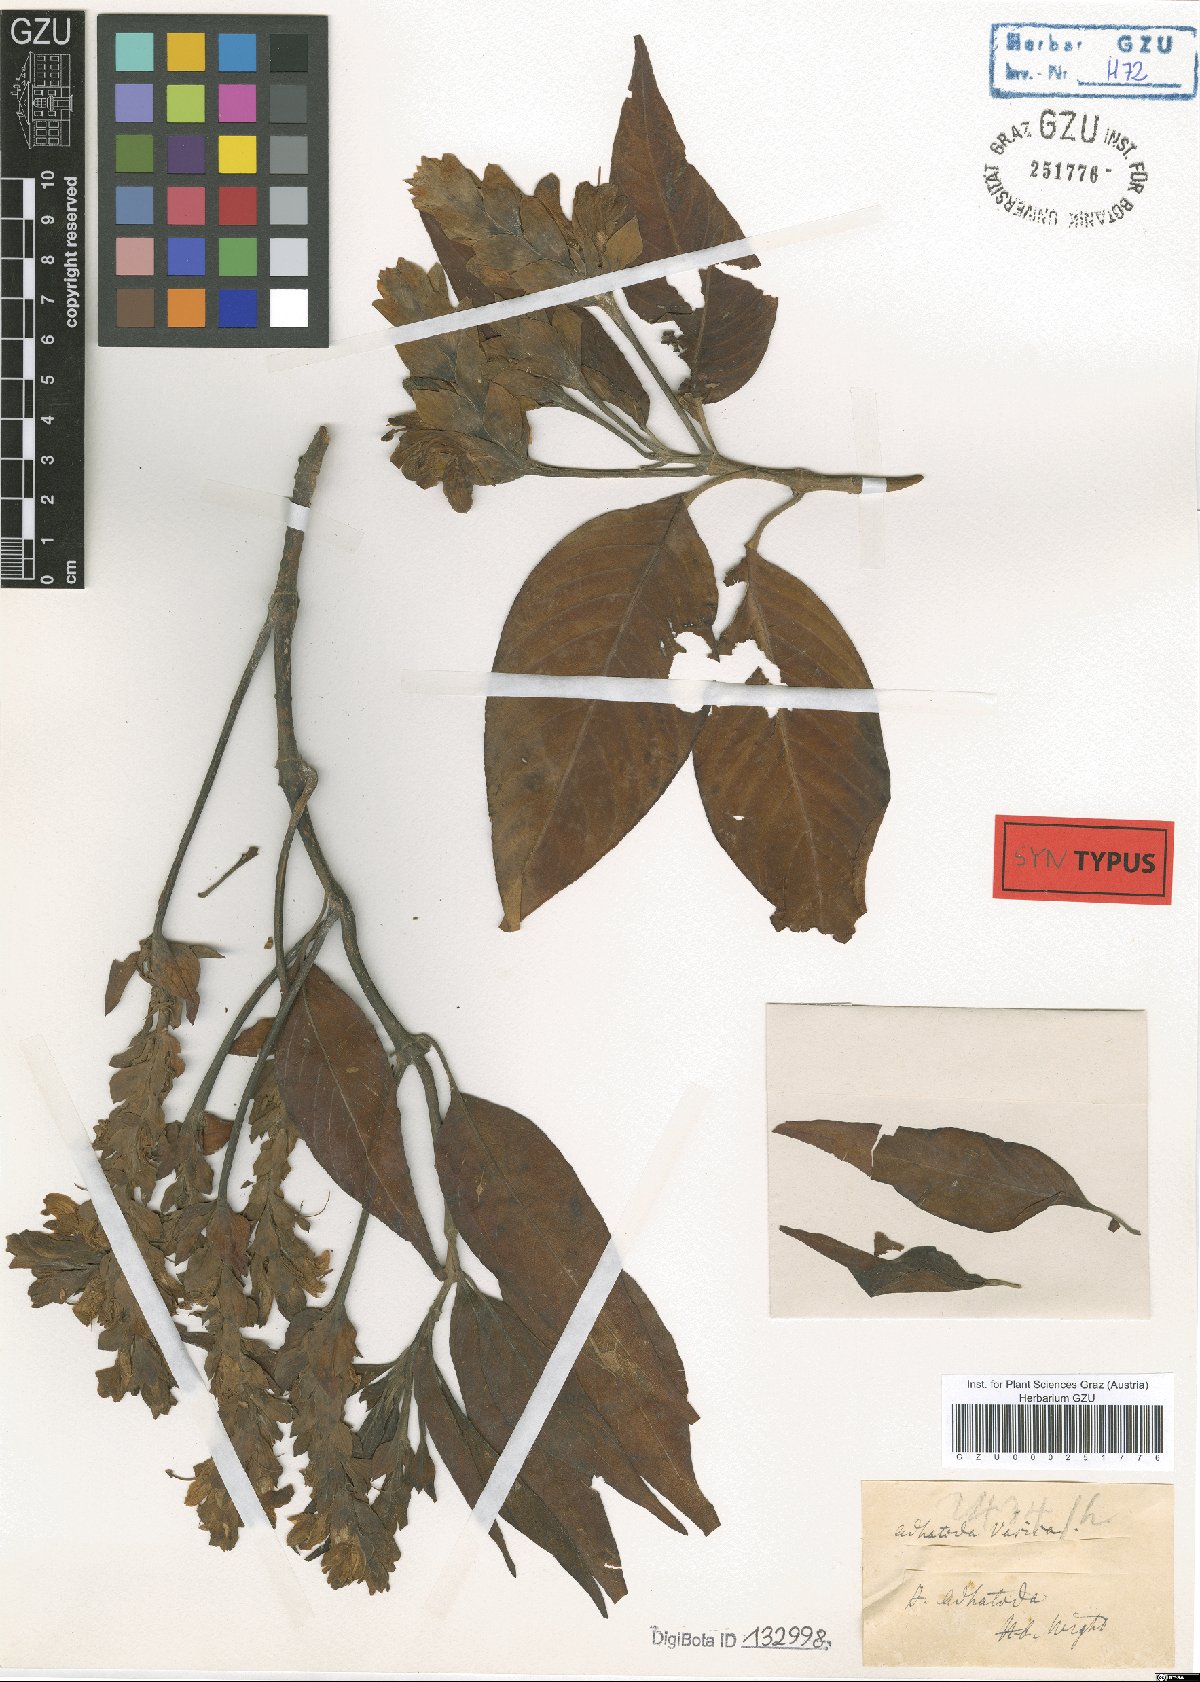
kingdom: Plantae
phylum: Tracheophyta
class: Magnoliopsida
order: Lamiales
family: Acanthaceae
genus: Justicia
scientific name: Justicia adhatoda
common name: Malabar nut
